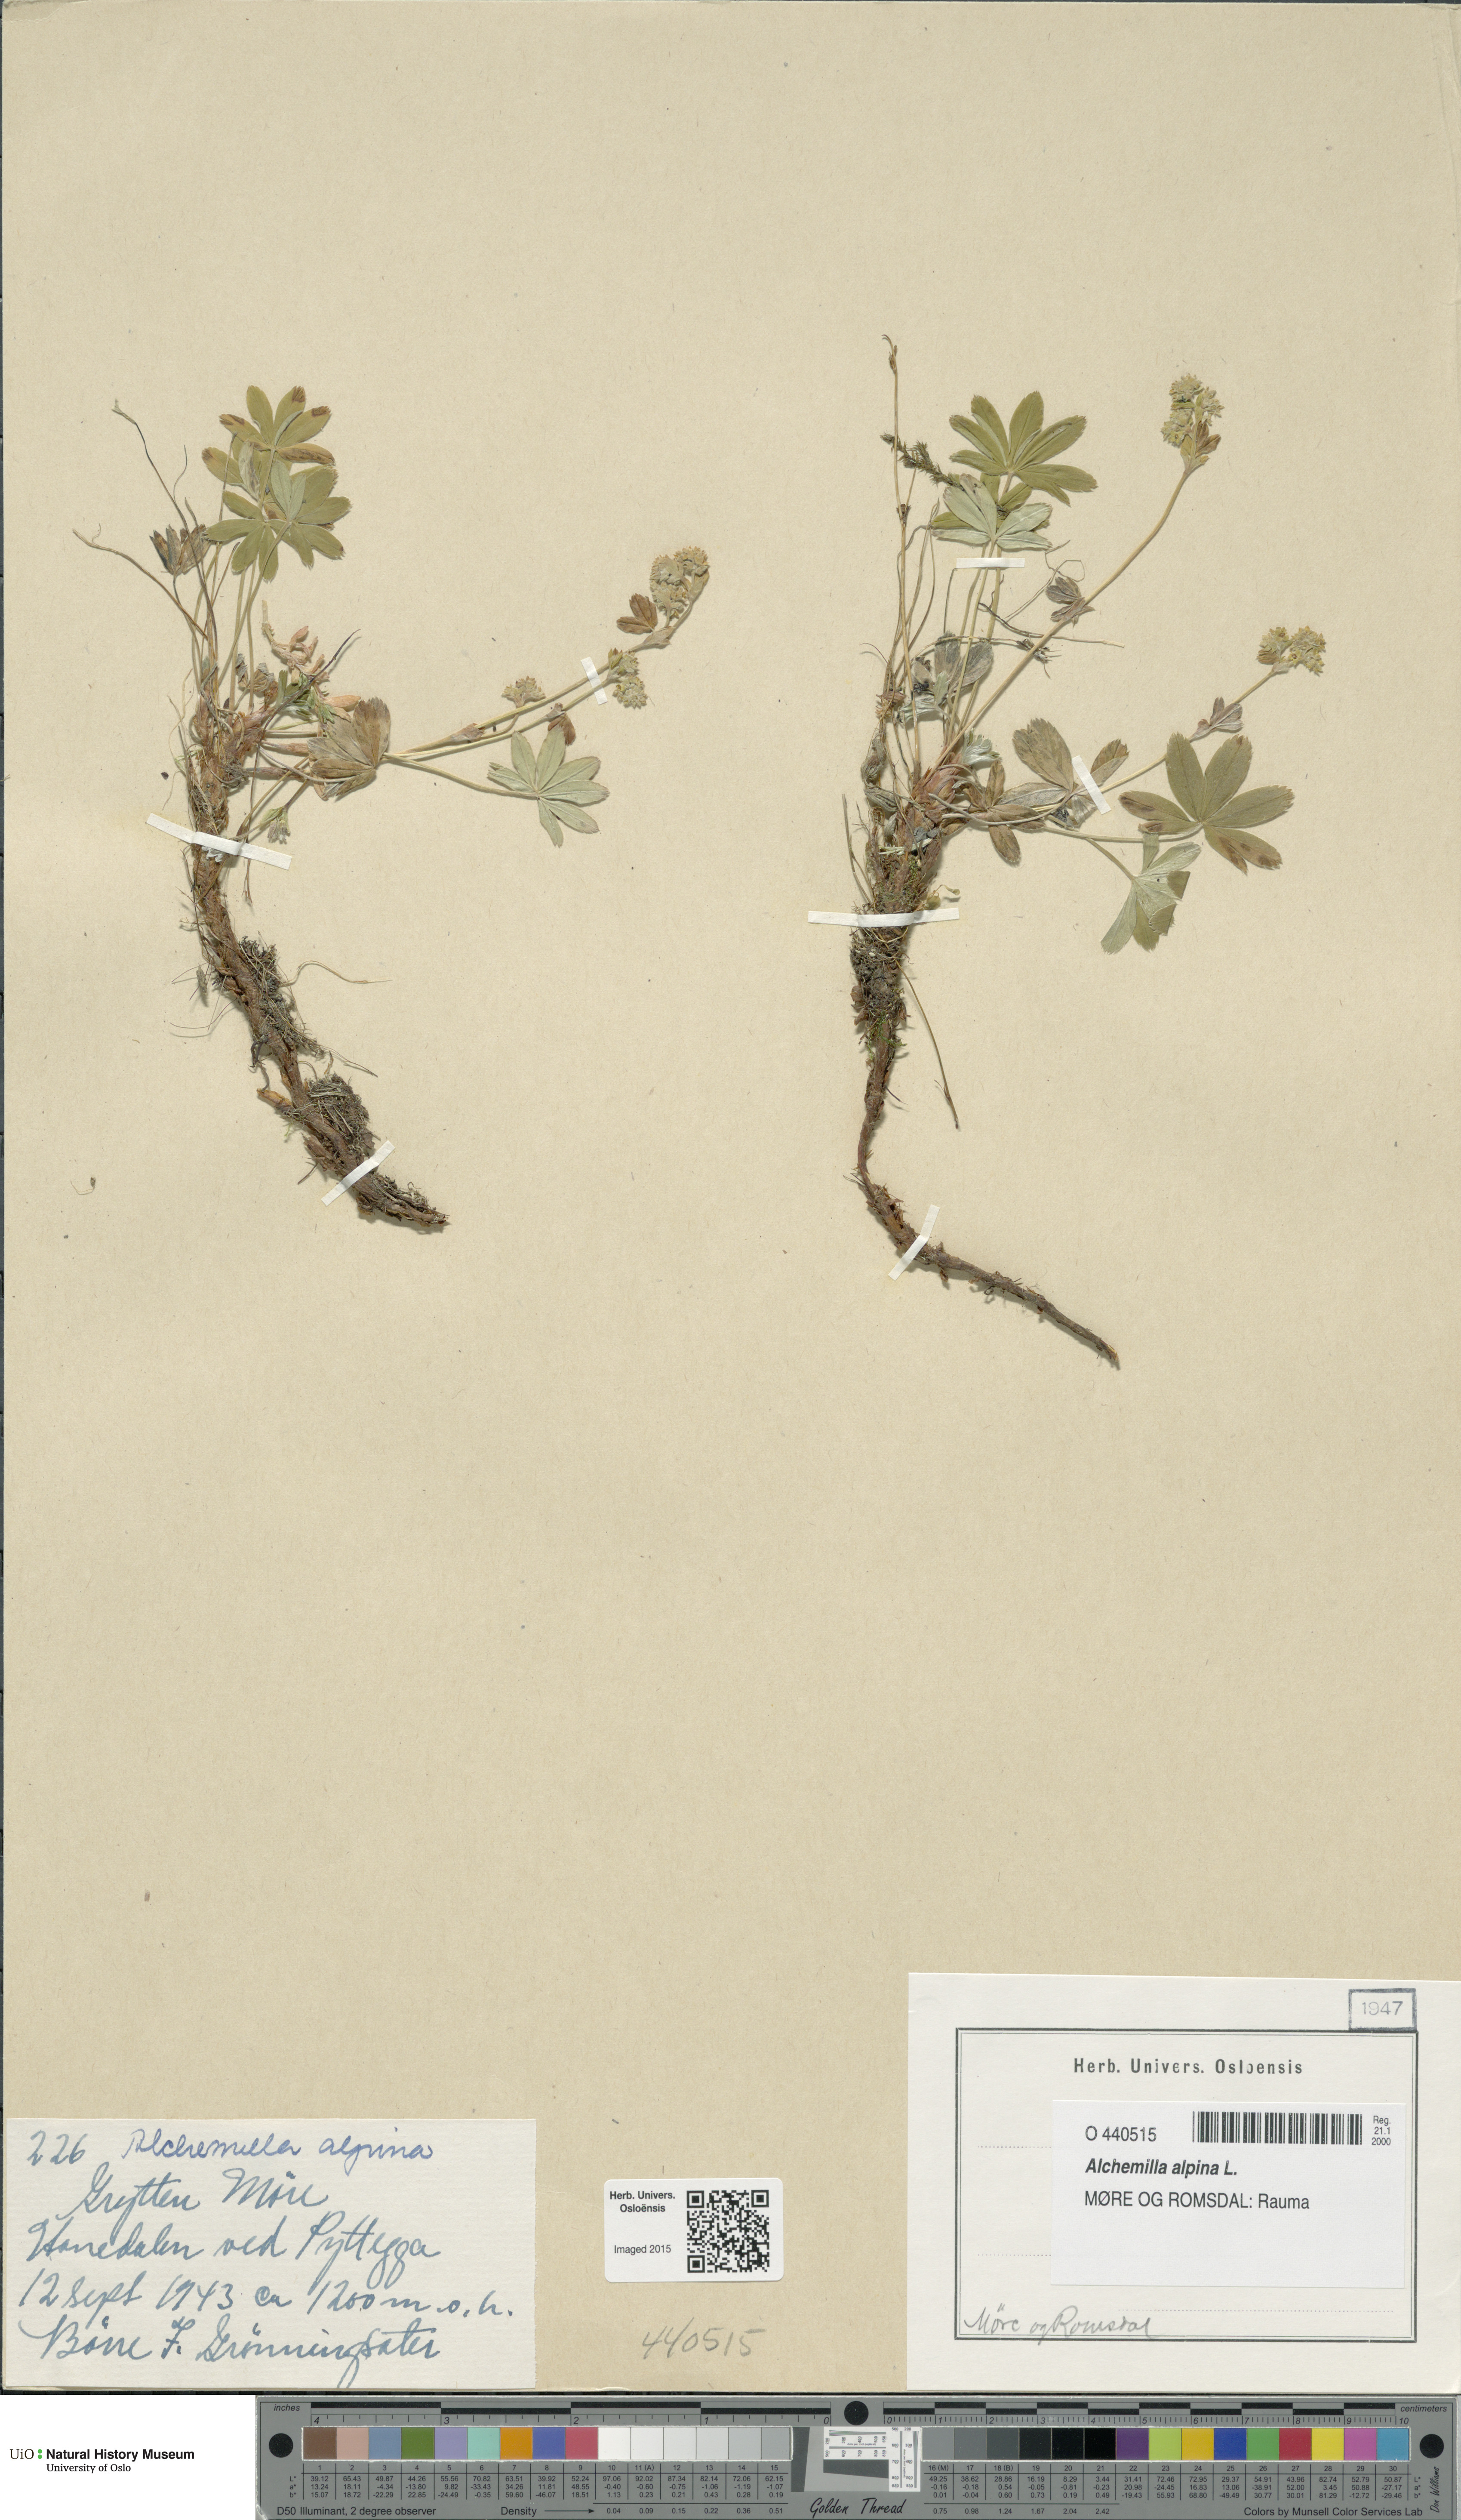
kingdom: Plantae
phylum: Tracheophyta
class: Magnoliopsida
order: Rosales
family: Rosaceae
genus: Alchemilla
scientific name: Alchemilla alpina
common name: Alpine lady's-mantle
